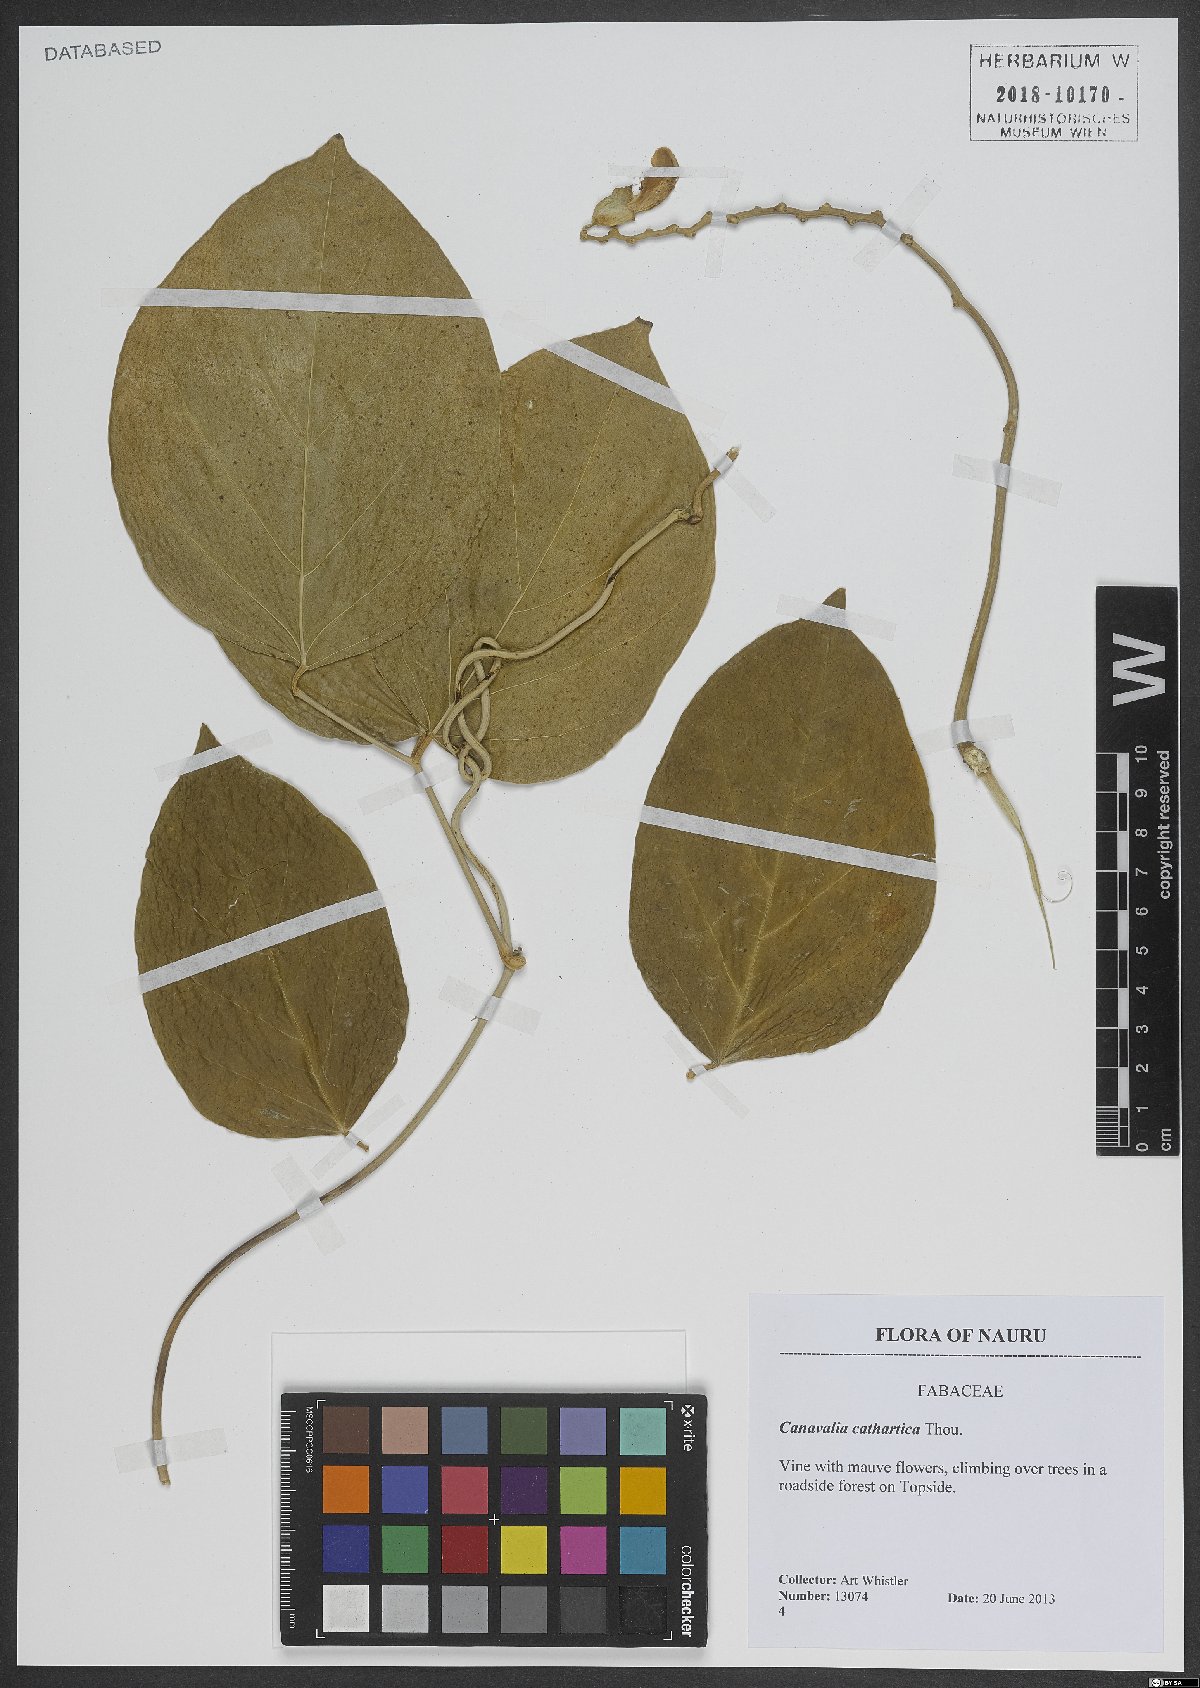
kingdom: Plantae
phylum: Tracheophyta
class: Magnoliopsida
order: Fabales
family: Fabaceae
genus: Canavalia
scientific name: Canavalia cathartica
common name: Maunaloa
